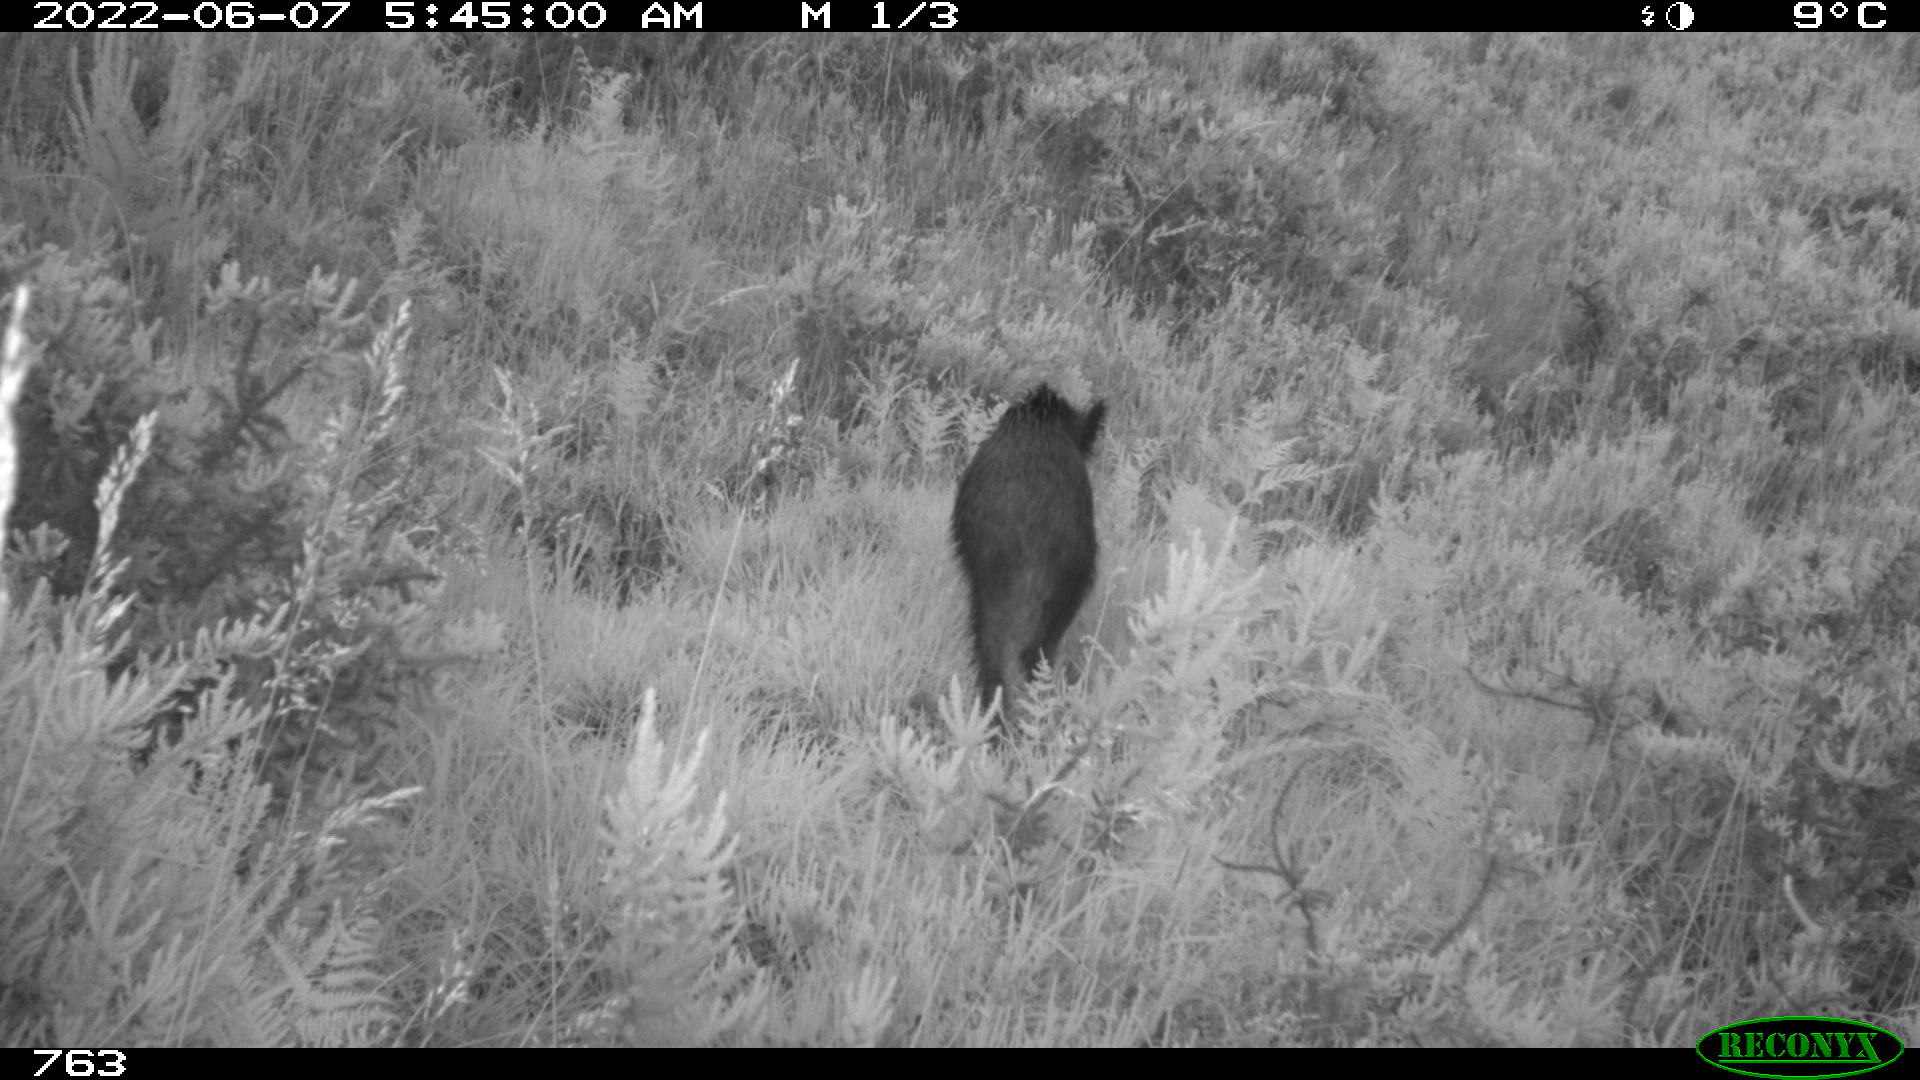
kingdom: Animalia
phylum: Chordata
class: Mammalia
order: Artiodactyla
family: Suidae
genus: Sus
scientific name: Sus scrofa
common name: Wild boar
